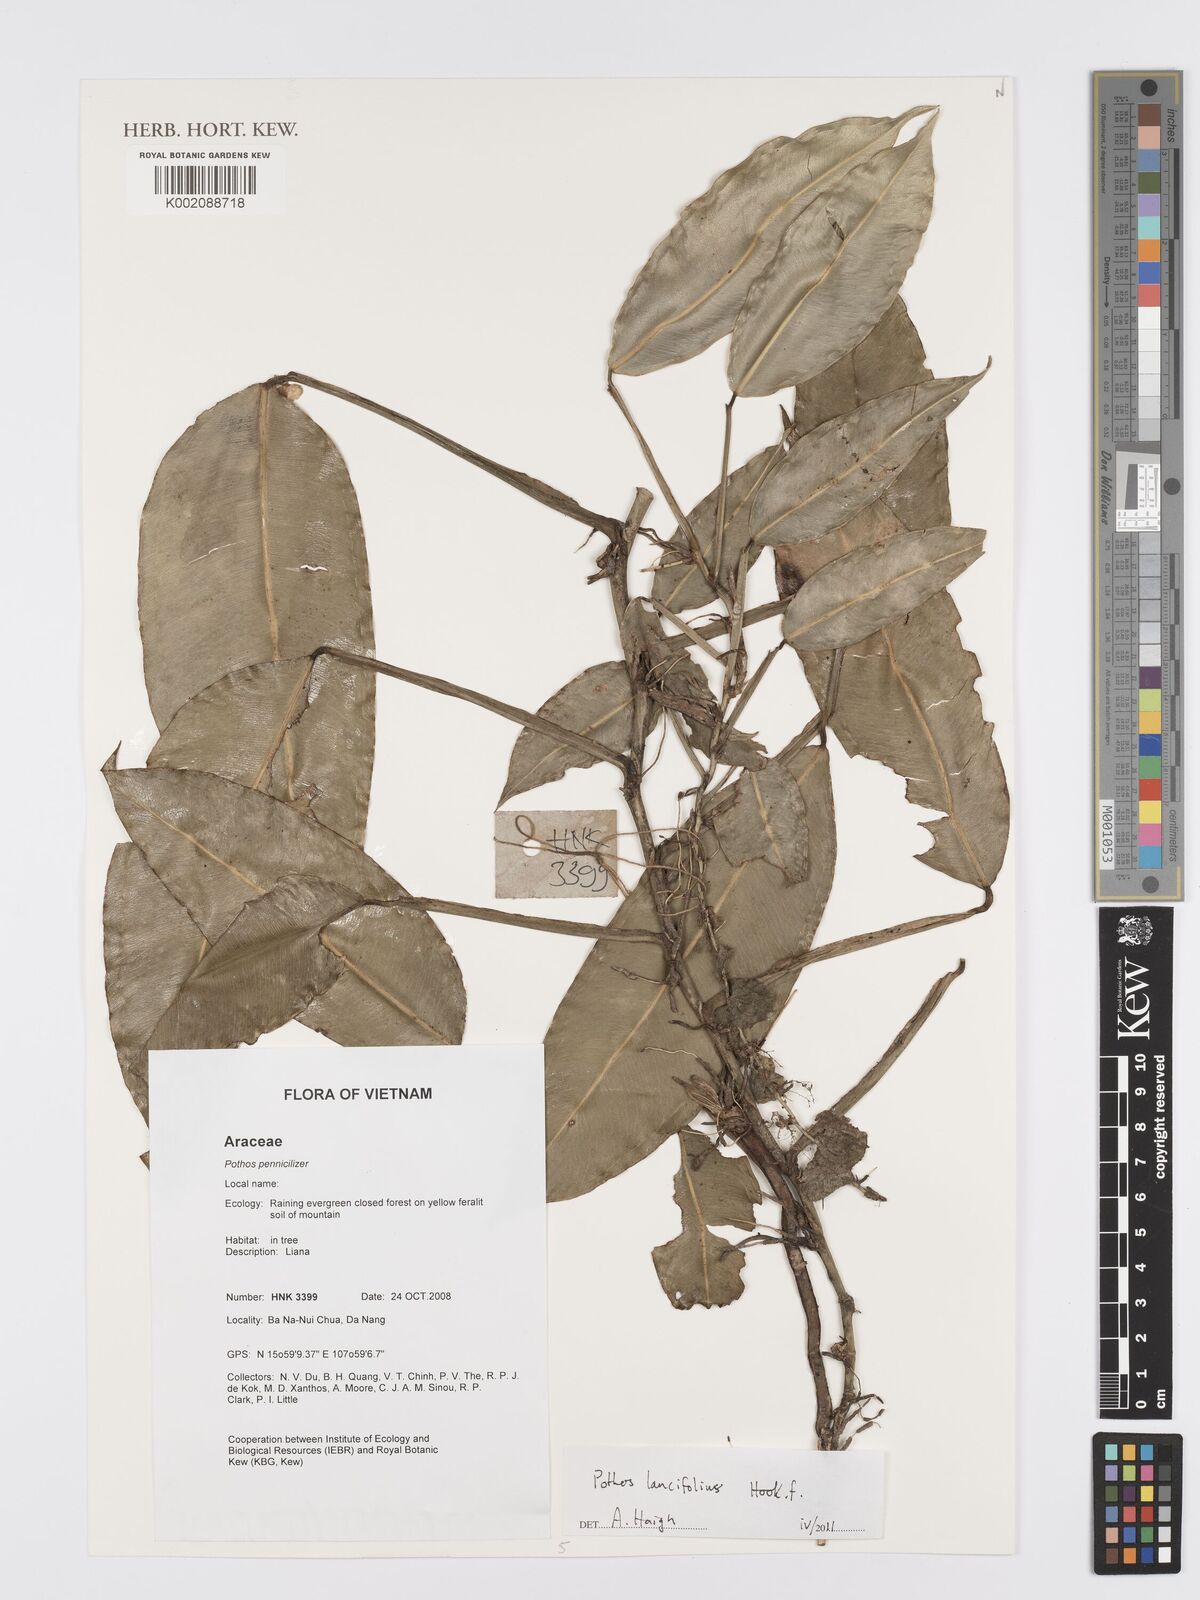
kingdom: Plantae
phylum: Tracheophyta
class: Liliopsida
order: Alismatales
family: Araceae
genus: Pothos
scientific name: Pothos lancifolius
